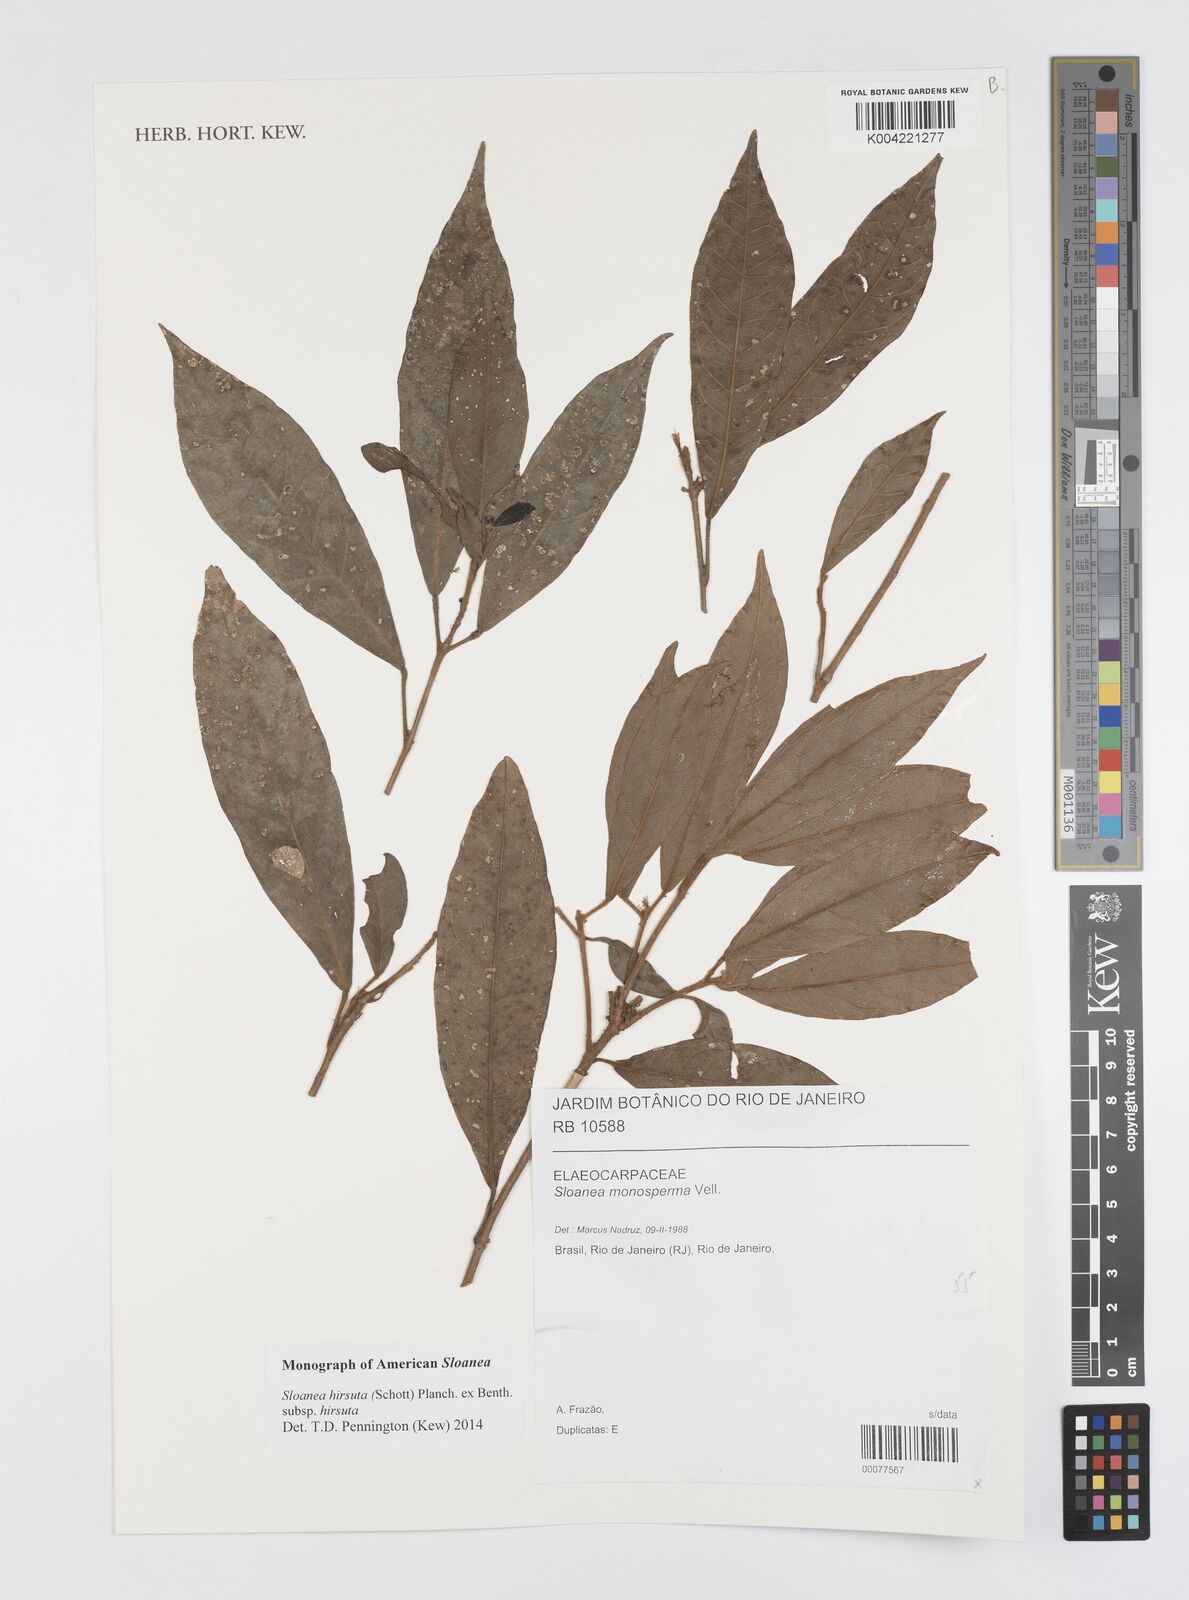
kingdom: Plantae
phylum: Tracheophyta
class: Magnoliopsida
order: Oxalidales
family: Elaeocarpaceae
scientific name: Elaeocarpaceae
